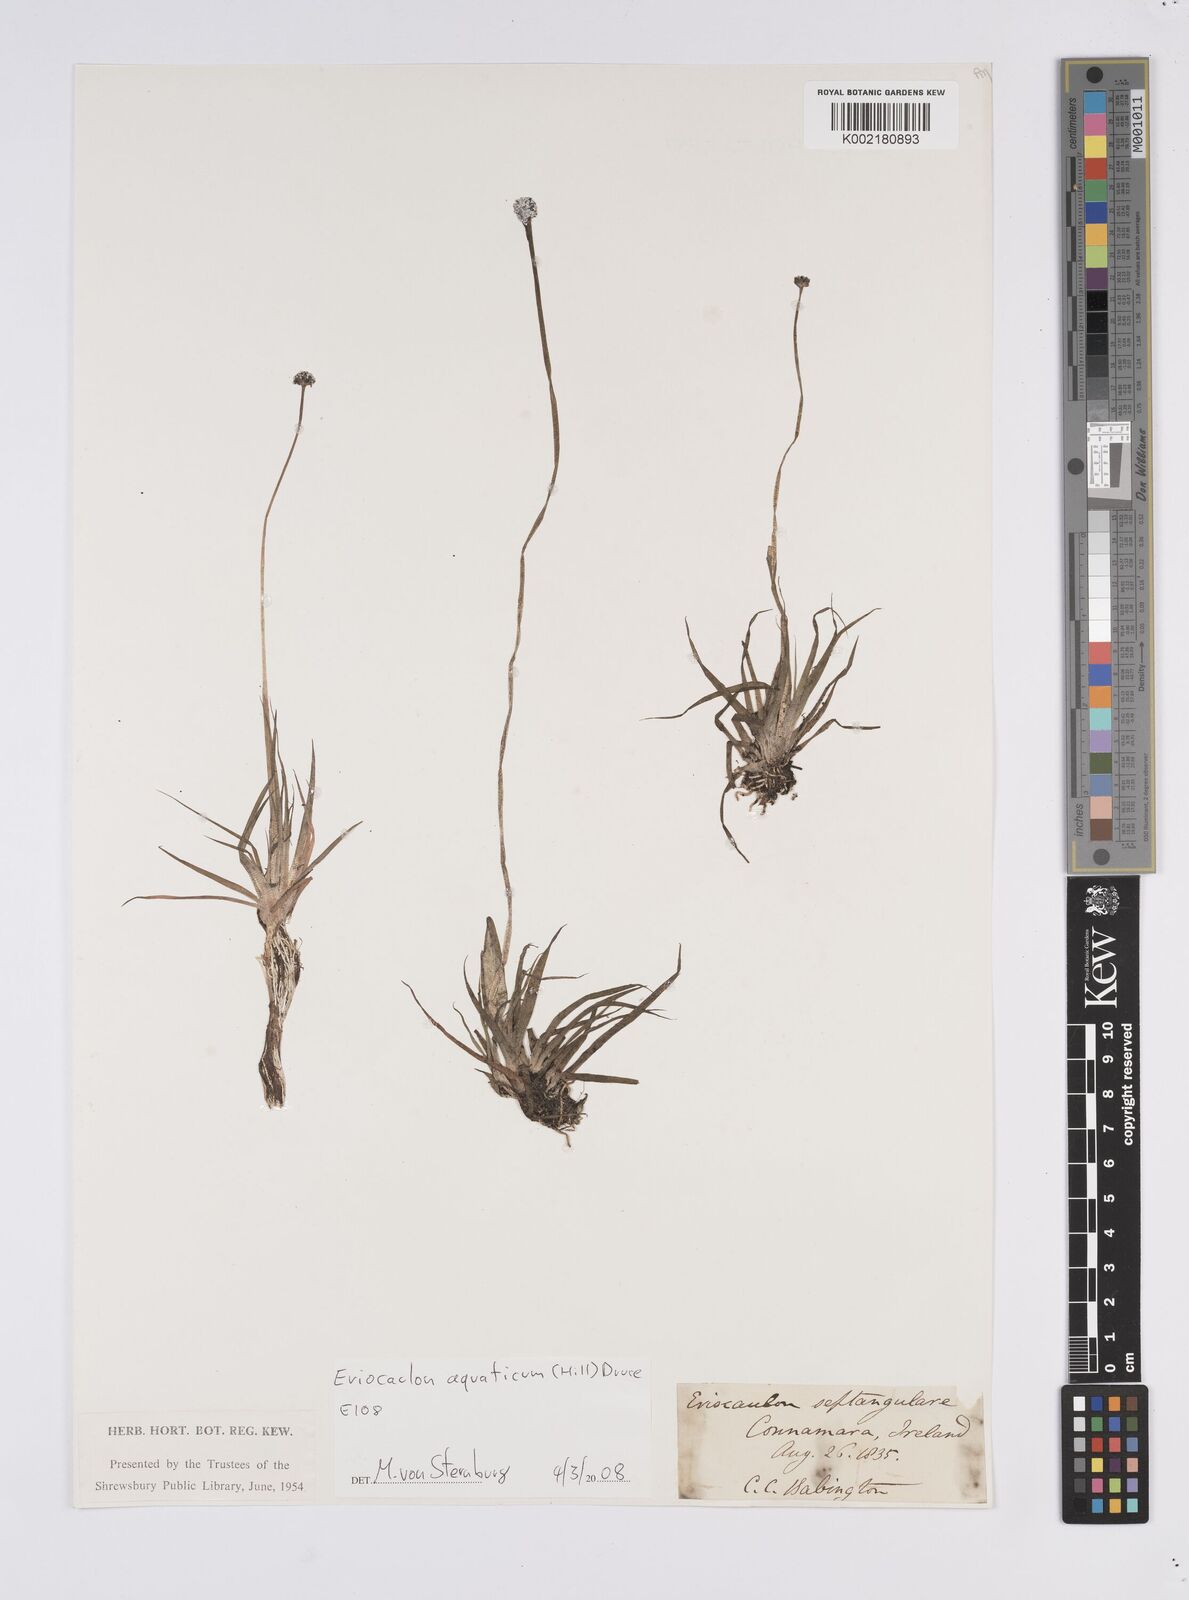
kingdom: Plantae
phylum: Tracheophyta
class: Liliopsida
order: Poales
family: Eriocaulaceae
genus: Eriocaulon
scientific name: Eriocaulon aquaticum
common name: Pipewort
